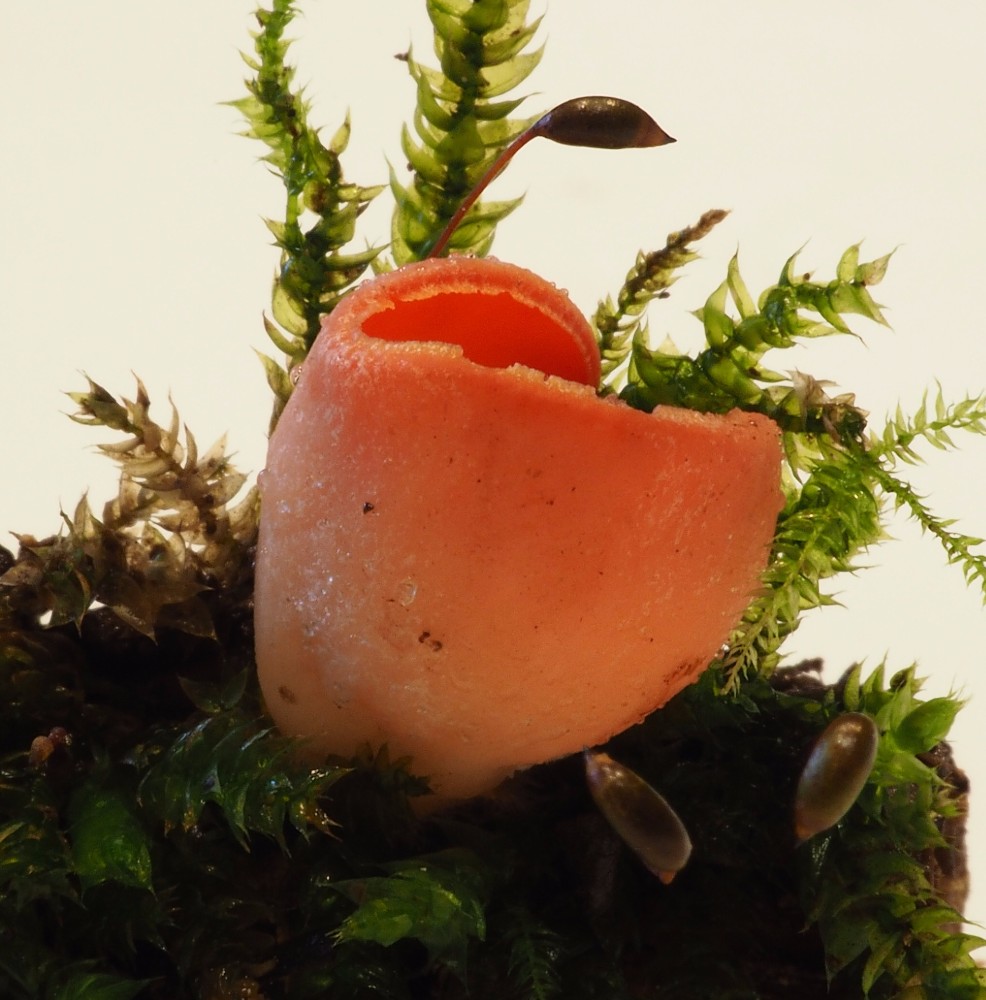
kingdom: Fungi
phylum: Ascomycota
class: Pezizomycetes
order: Pezizales
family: Sarcoscyphaceae
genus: Sarcoscypha
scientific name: Sarcoscypha coccinea
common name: skarlagen-pragtbæger
